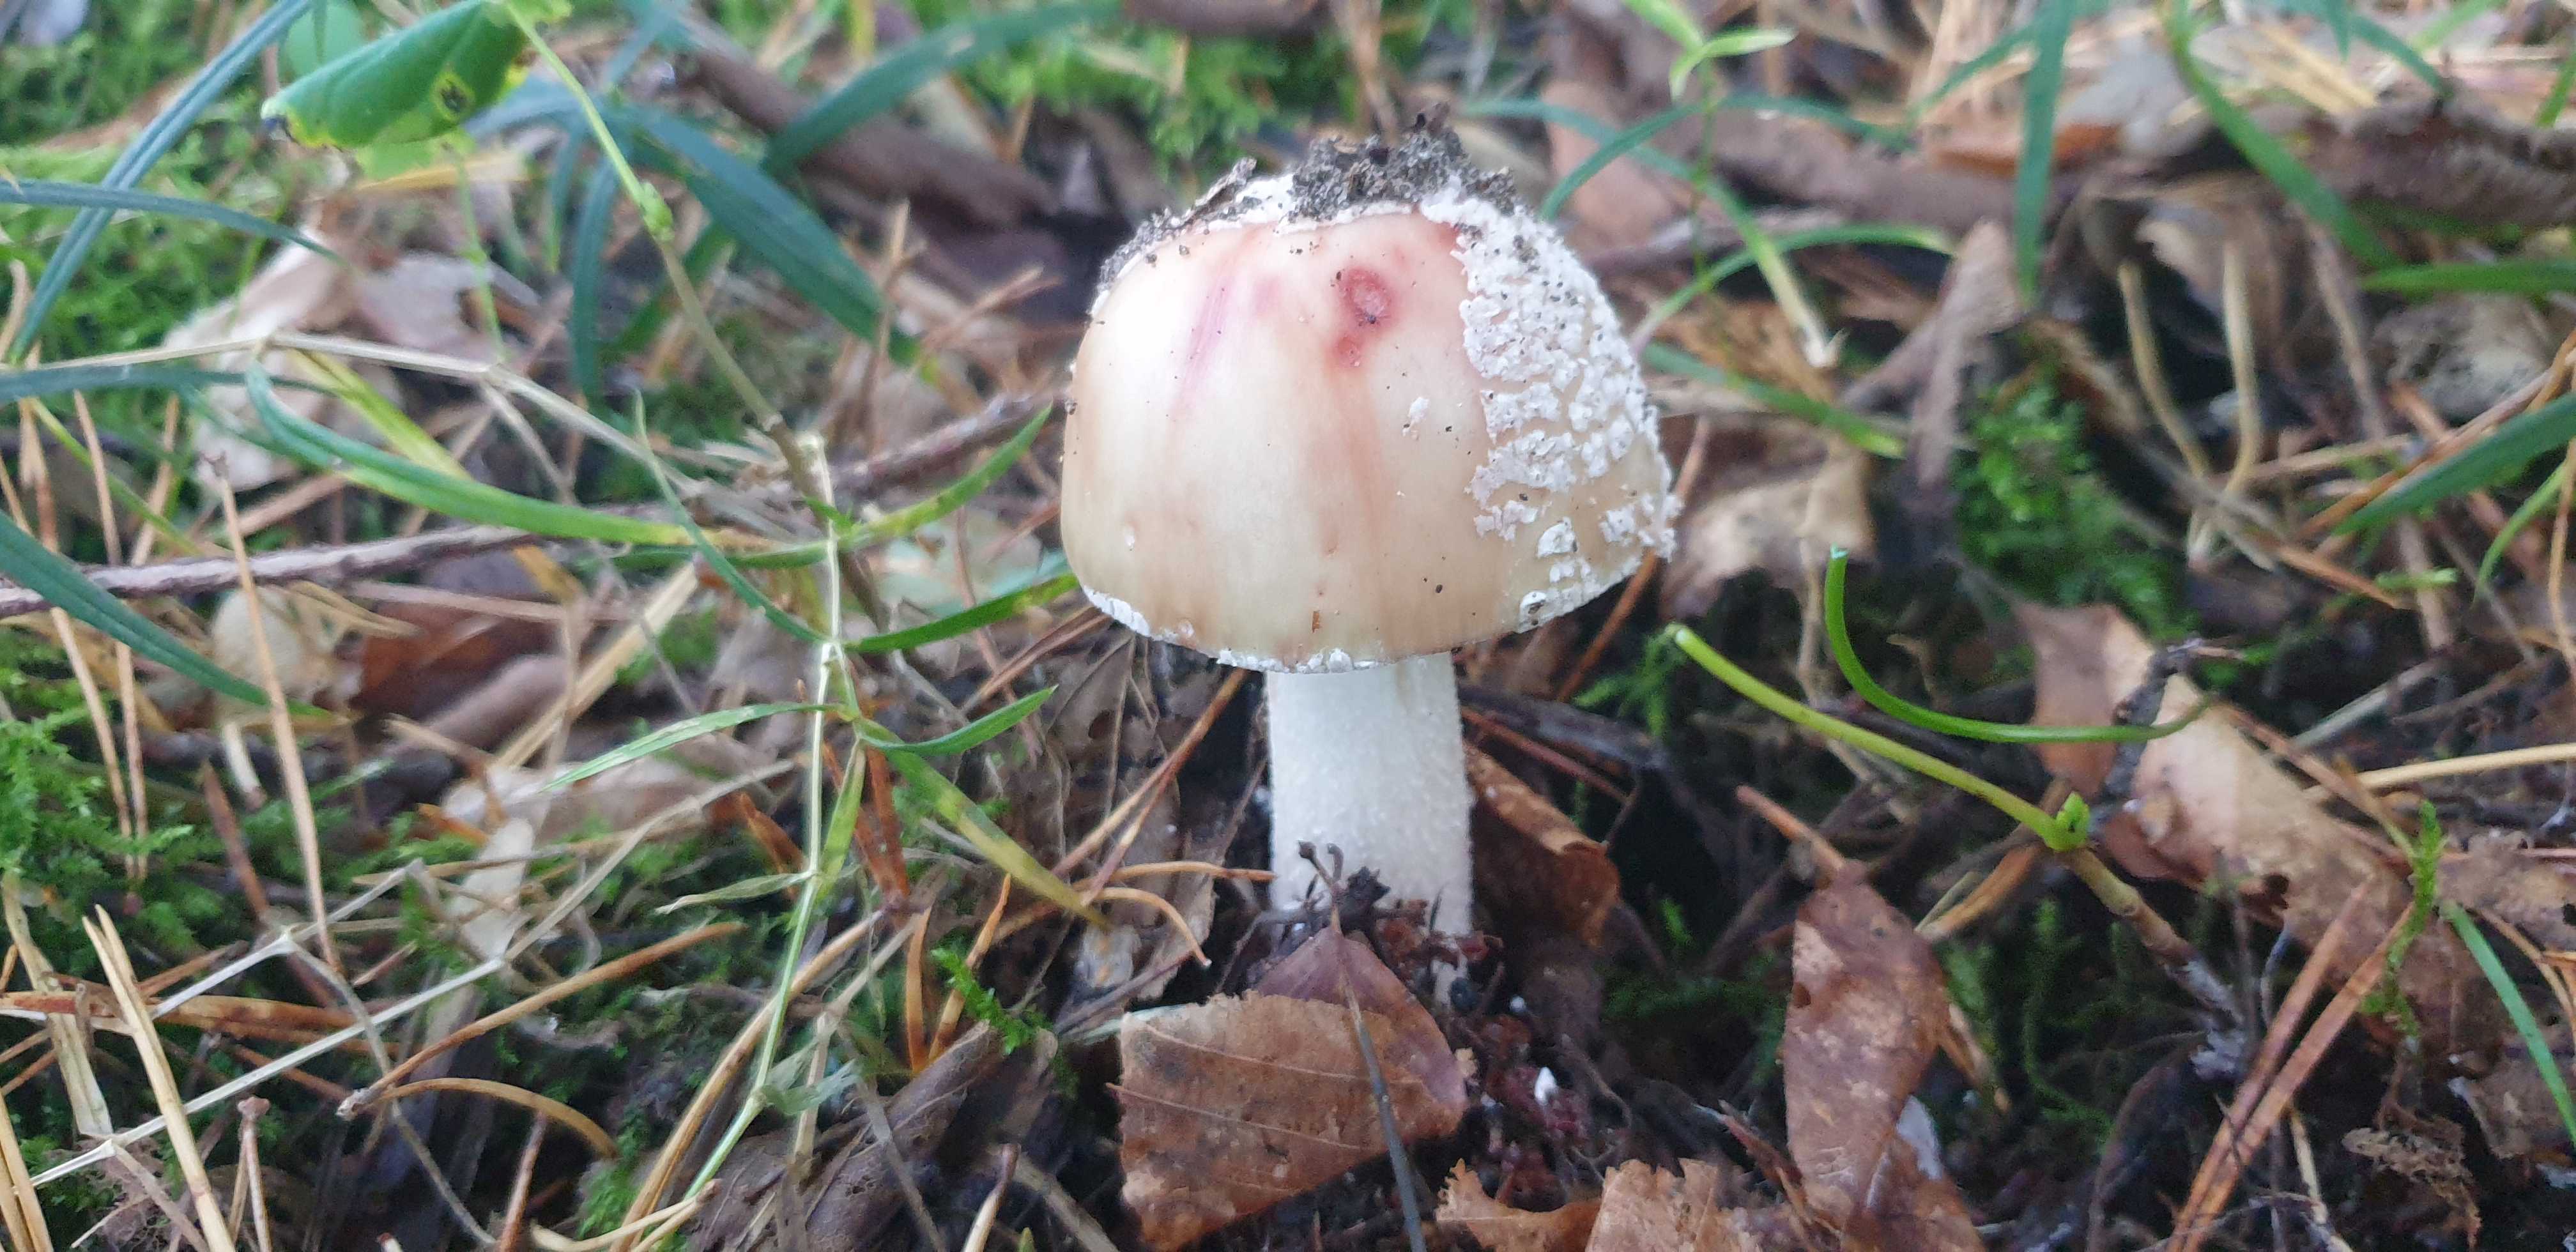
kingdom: Fungi
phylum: Basidiomycota
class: Agaricomycetes
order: Agaricales
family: Amanitaceae
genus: Amanita
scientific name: Amanita rubescens
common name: rødmende fluesvamp
